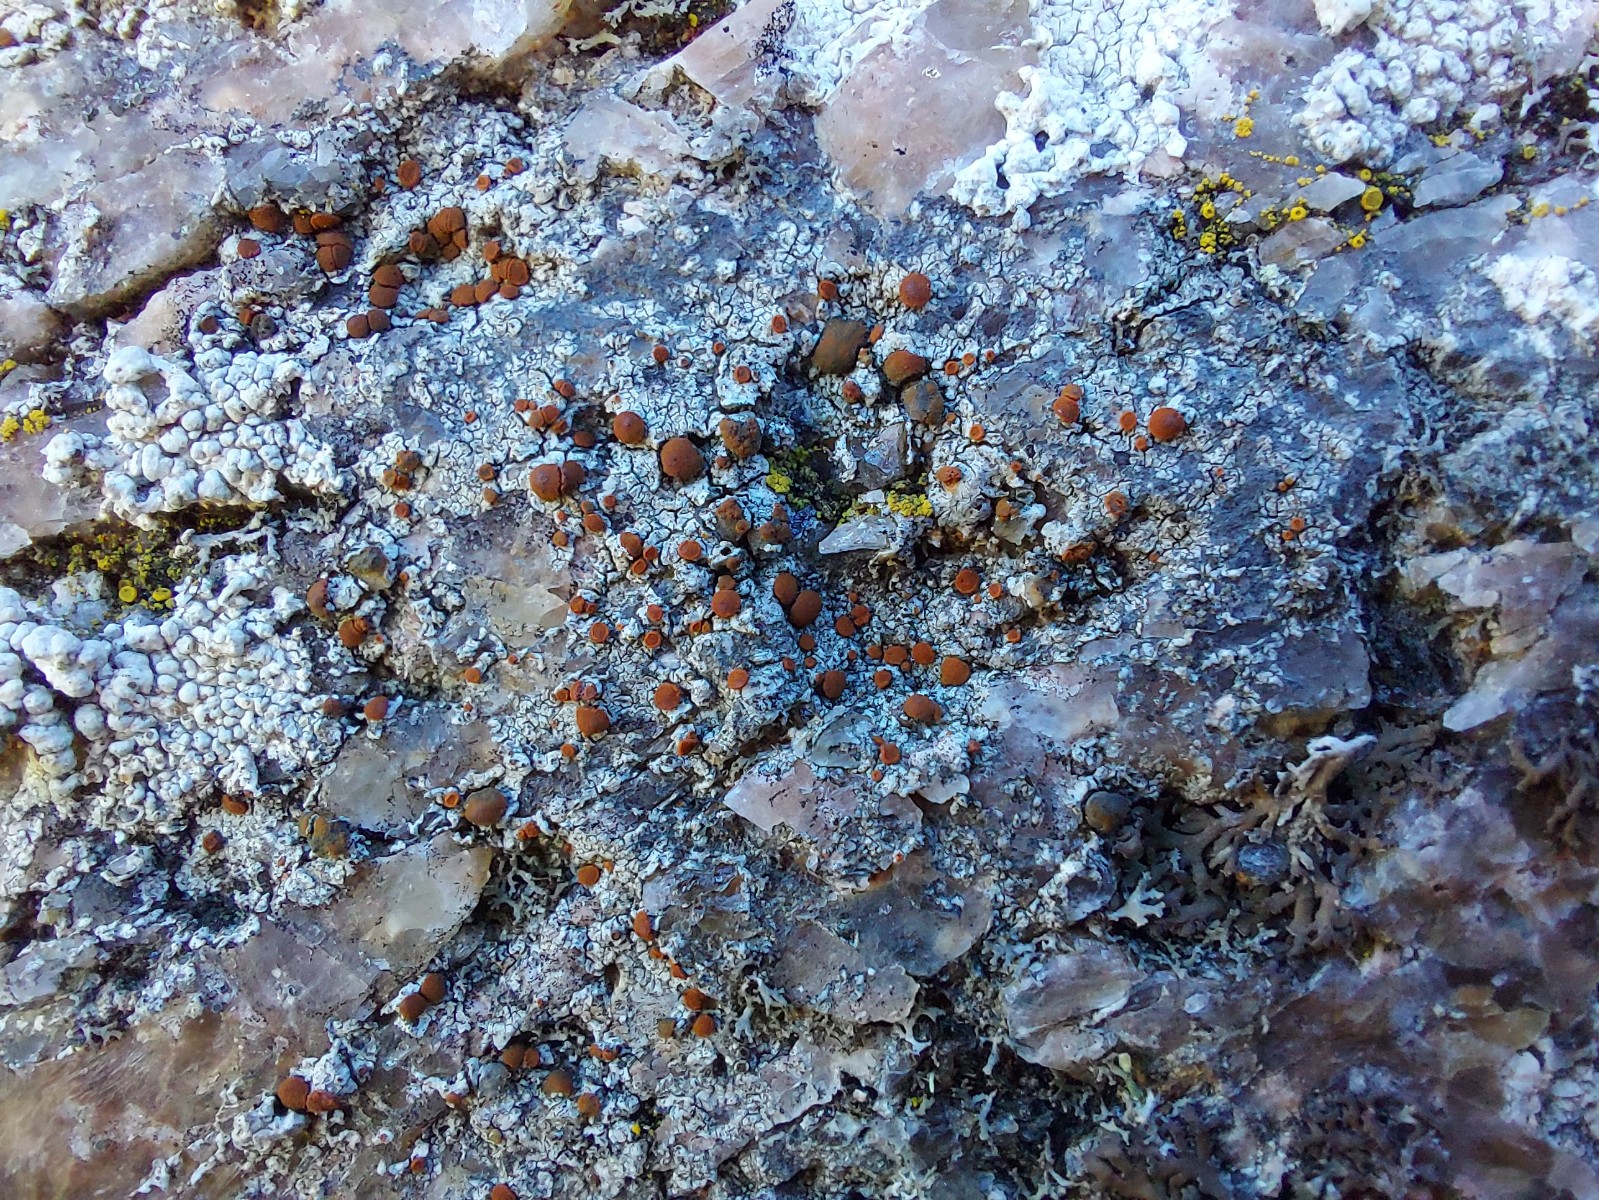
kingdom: Fungi
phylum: Ascomycota
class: Lecanoromycetes
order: Teloschistales
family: Teloschistaceae
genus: Blastenia
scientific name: Blastenia crenularia
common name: pyntelig orangelav
